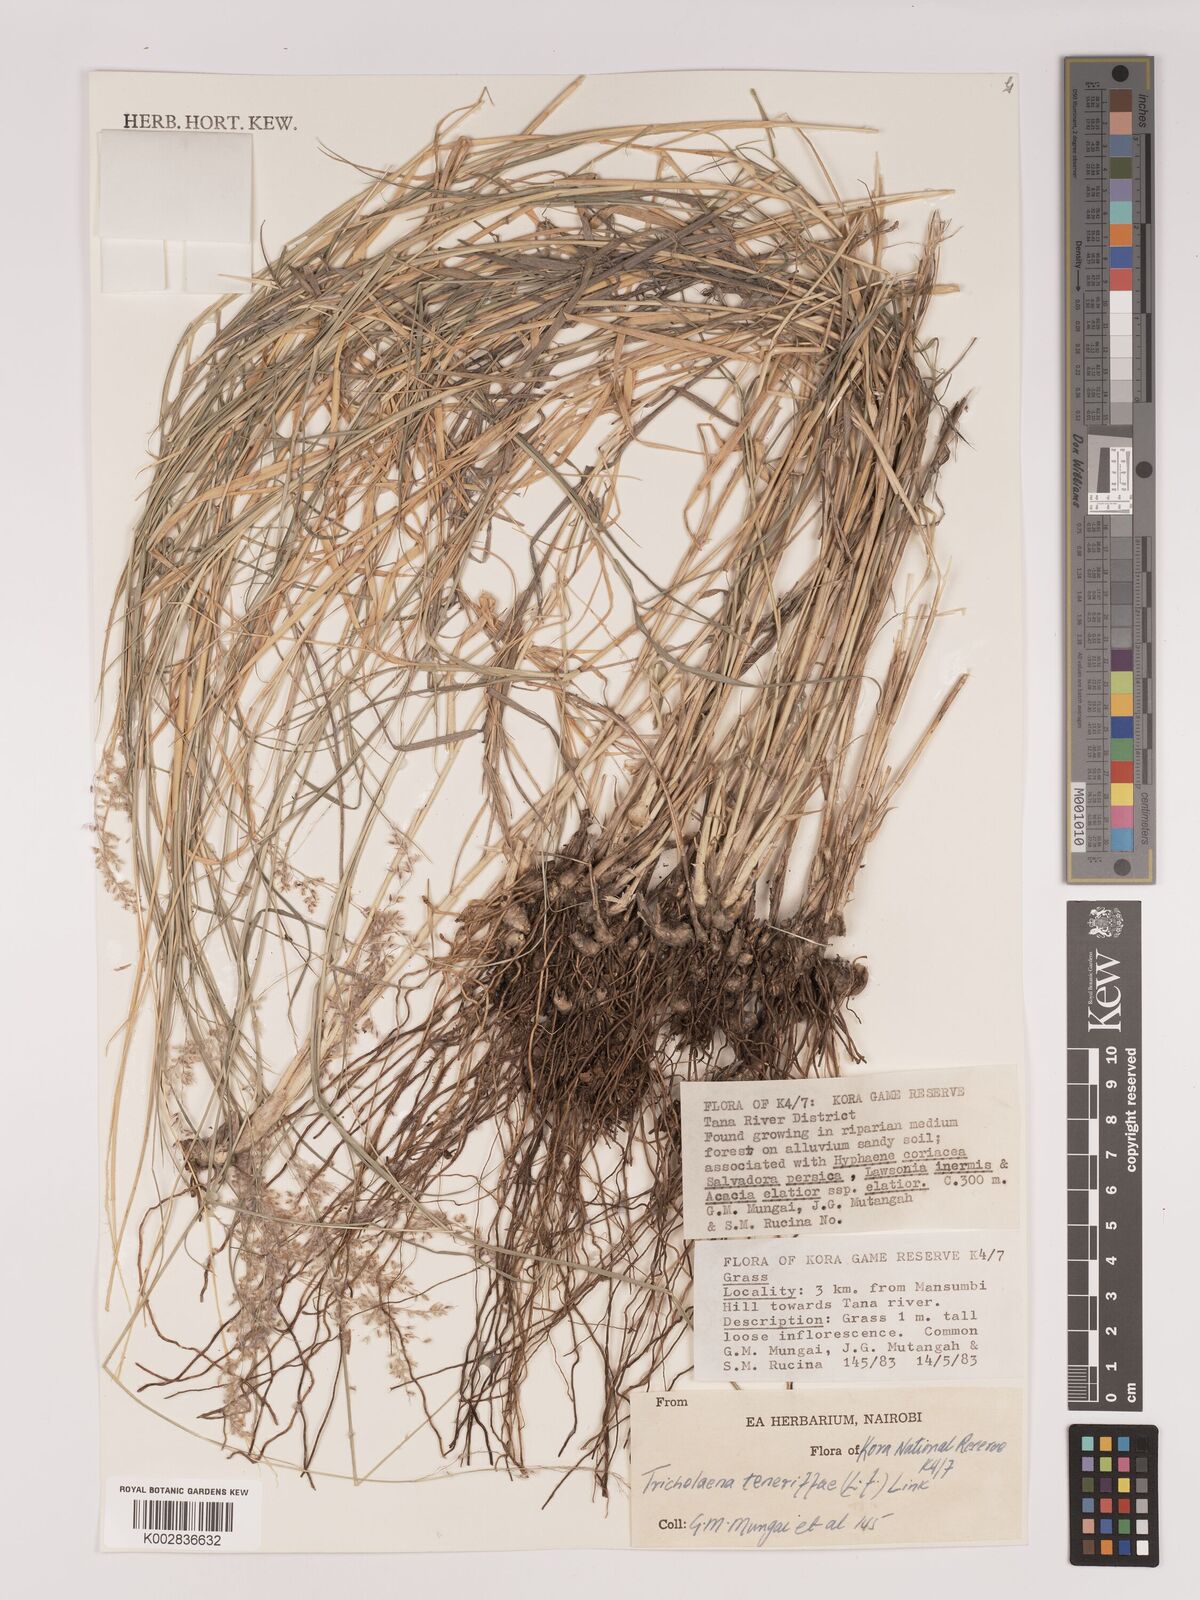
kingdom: Plantae
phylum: Tracheophyta
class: Liliopsida
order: Poales
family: Poaceae
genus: Tricholaena
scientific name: Tricholaena teneriffae
